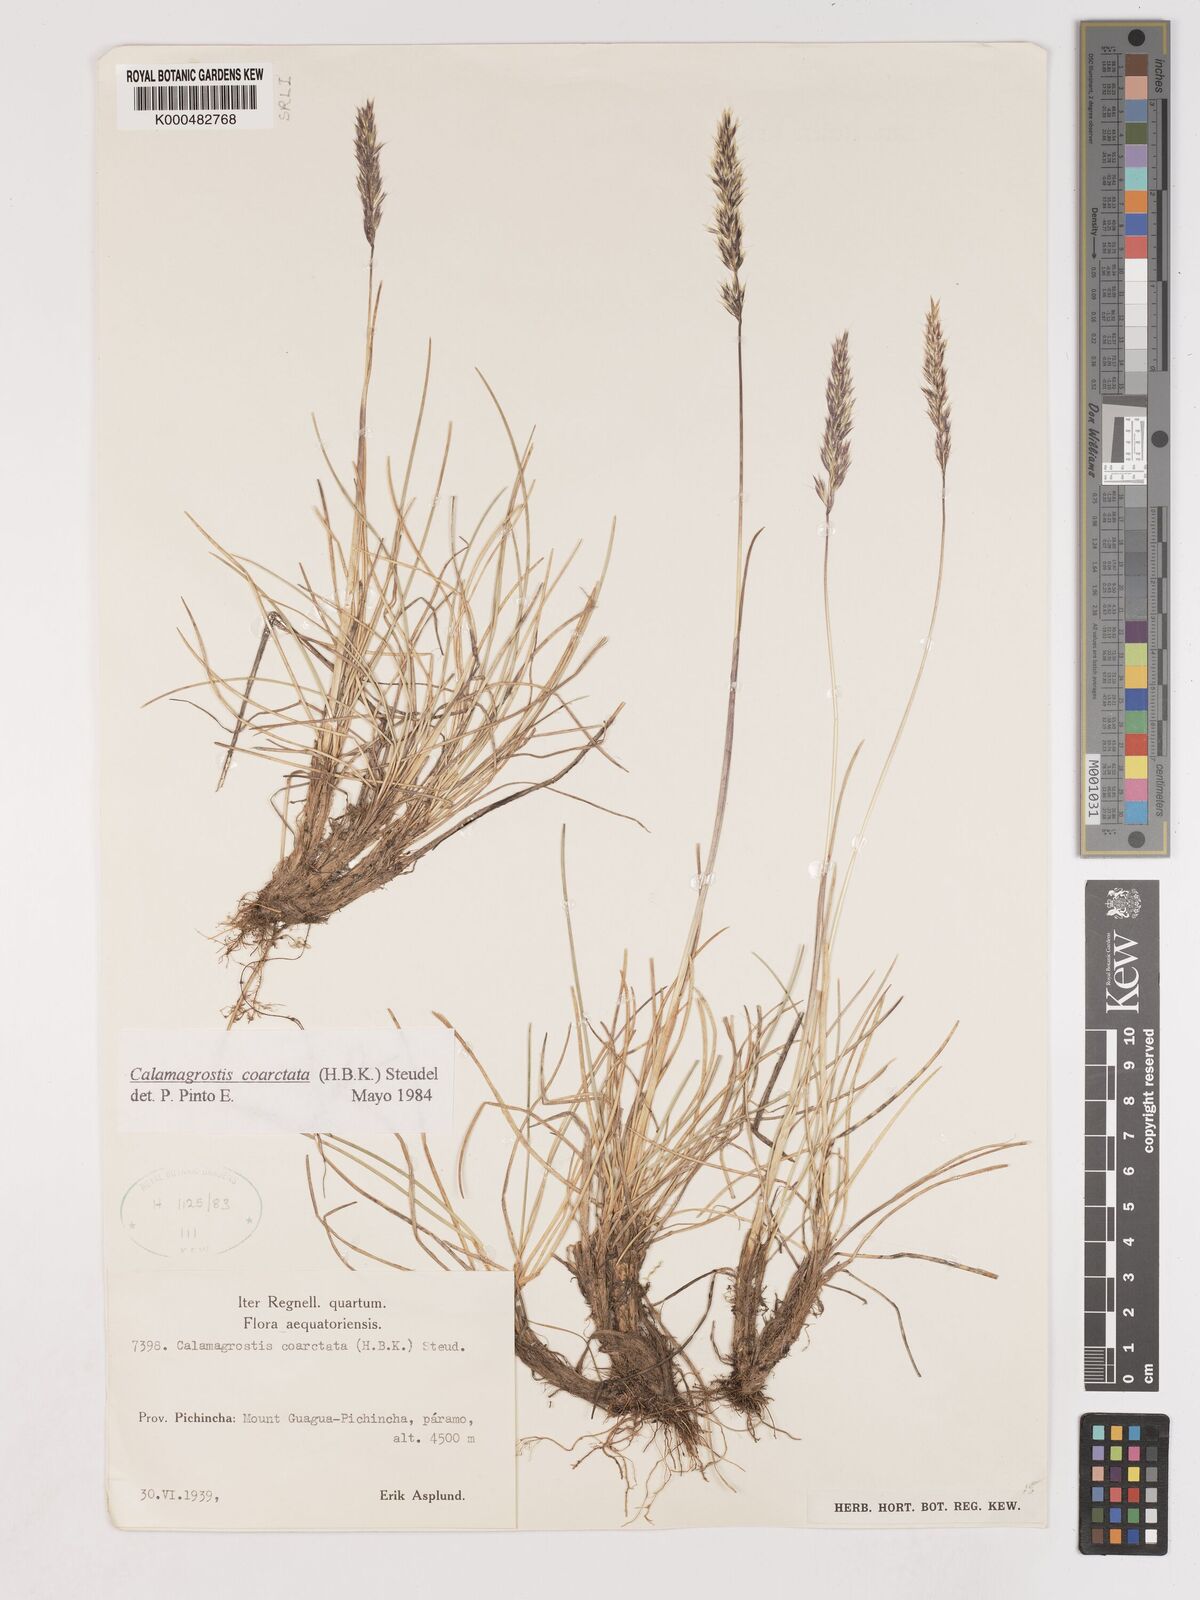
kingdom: Plantae
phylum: Tracheophyta
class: Liliopsida
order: Poales
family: Poaceae
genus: Cinnagrostis
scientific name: Cinnagrostis coarctata
